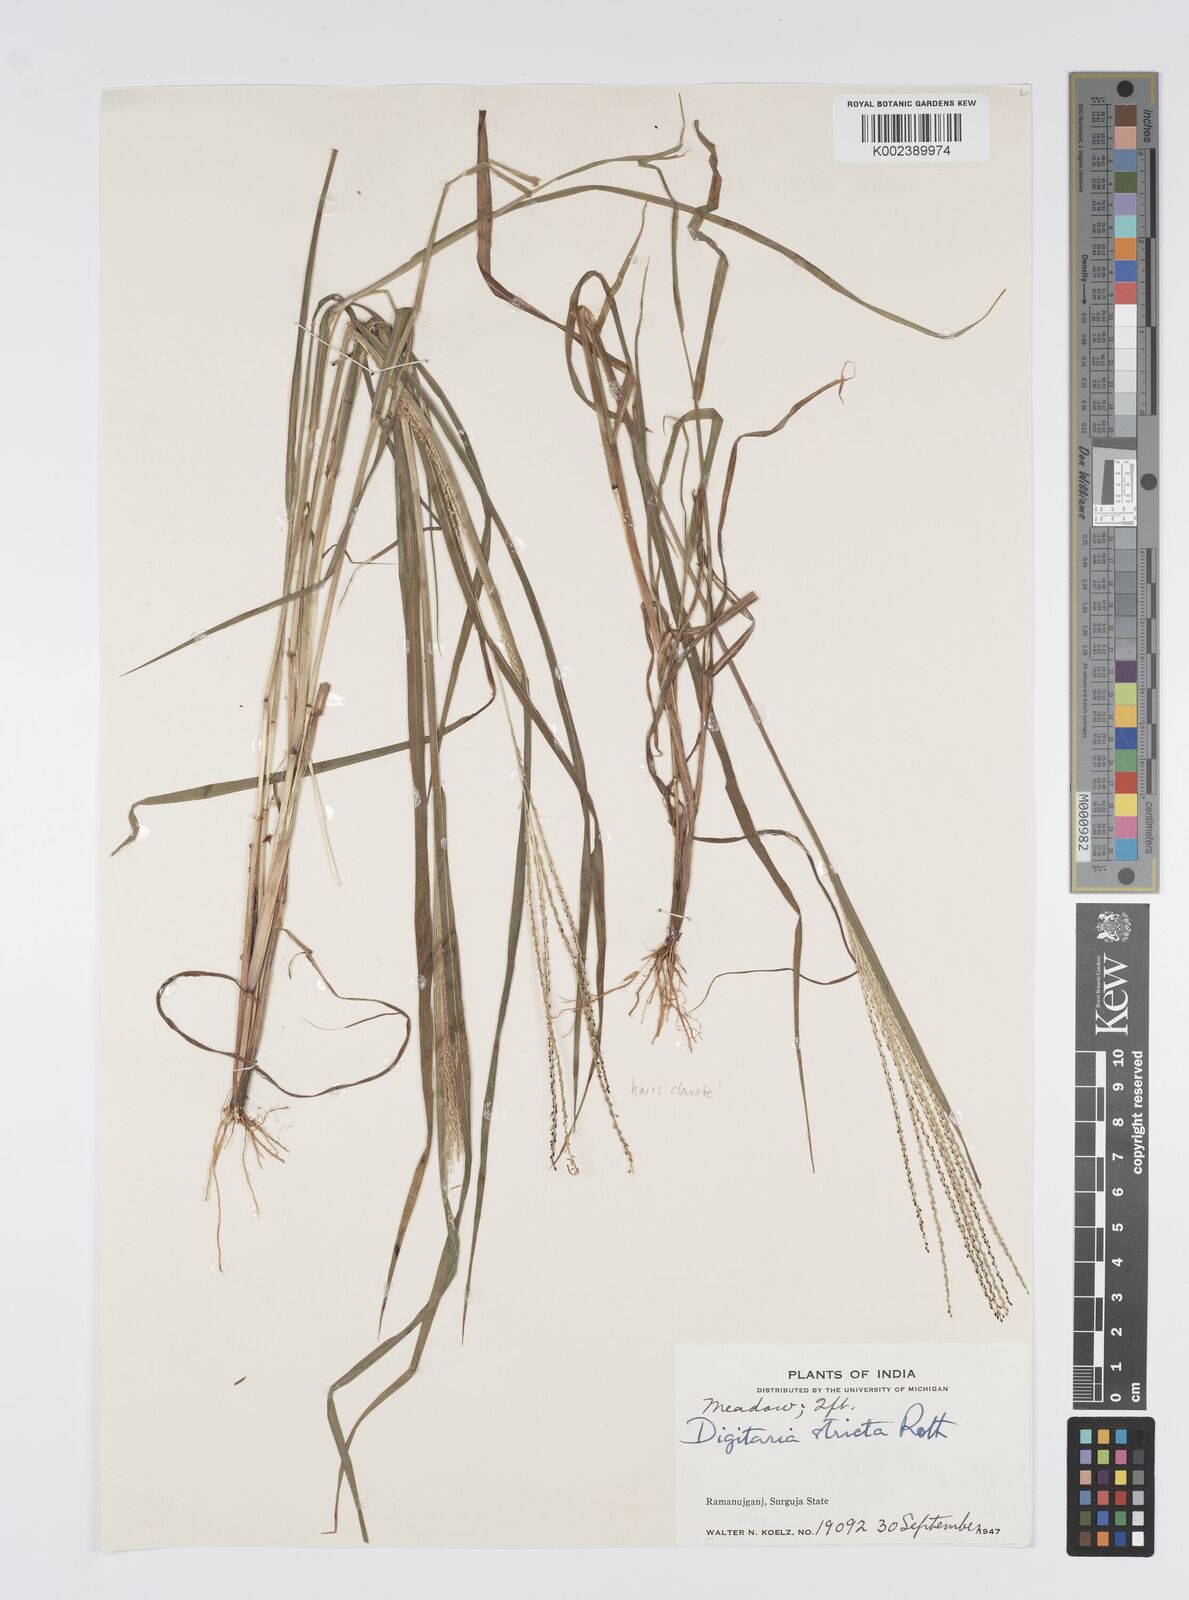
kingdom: Plantae
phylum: Tracheophyta
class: Liliopsida
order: Poales
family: Poaceae
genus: Digitaria
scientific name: Digitaria stricta
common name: Crabgrass
